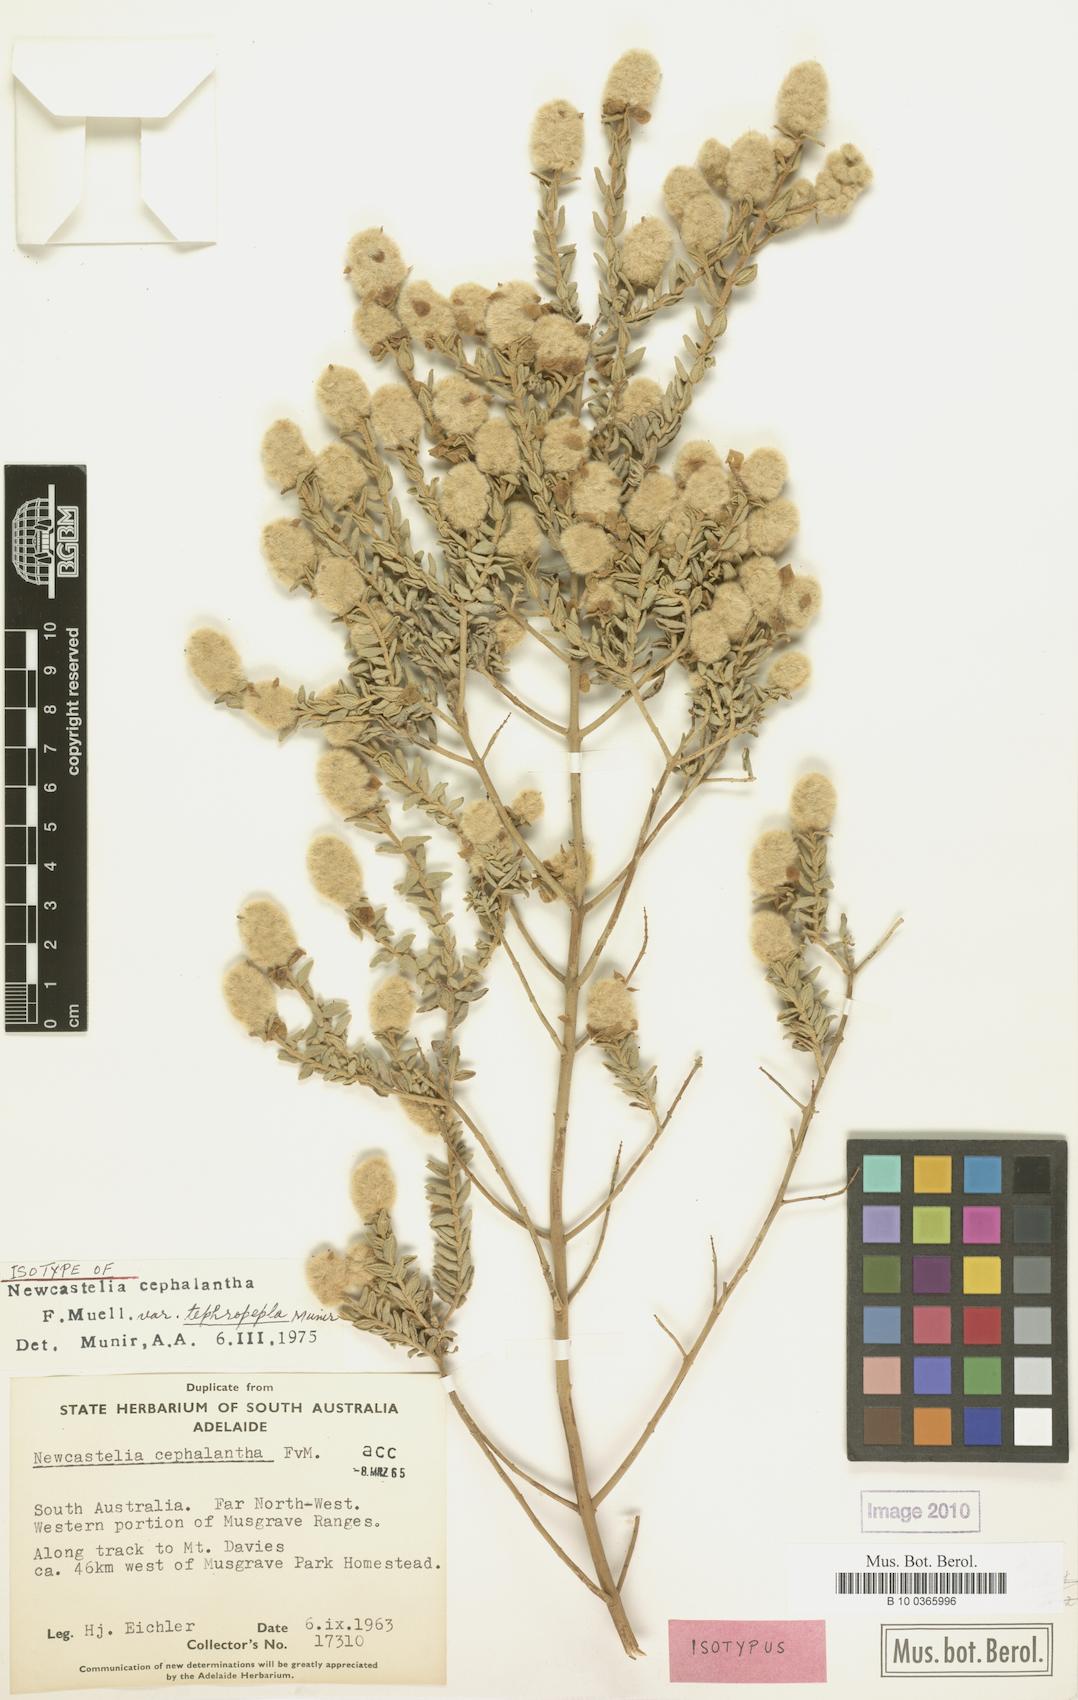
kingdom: Plantae
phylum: Tracheophyta
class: Magnoliopsida
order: Lamiales
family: Lamiaceae
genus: Newcastelia
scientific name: Newcastelia cephalantha
